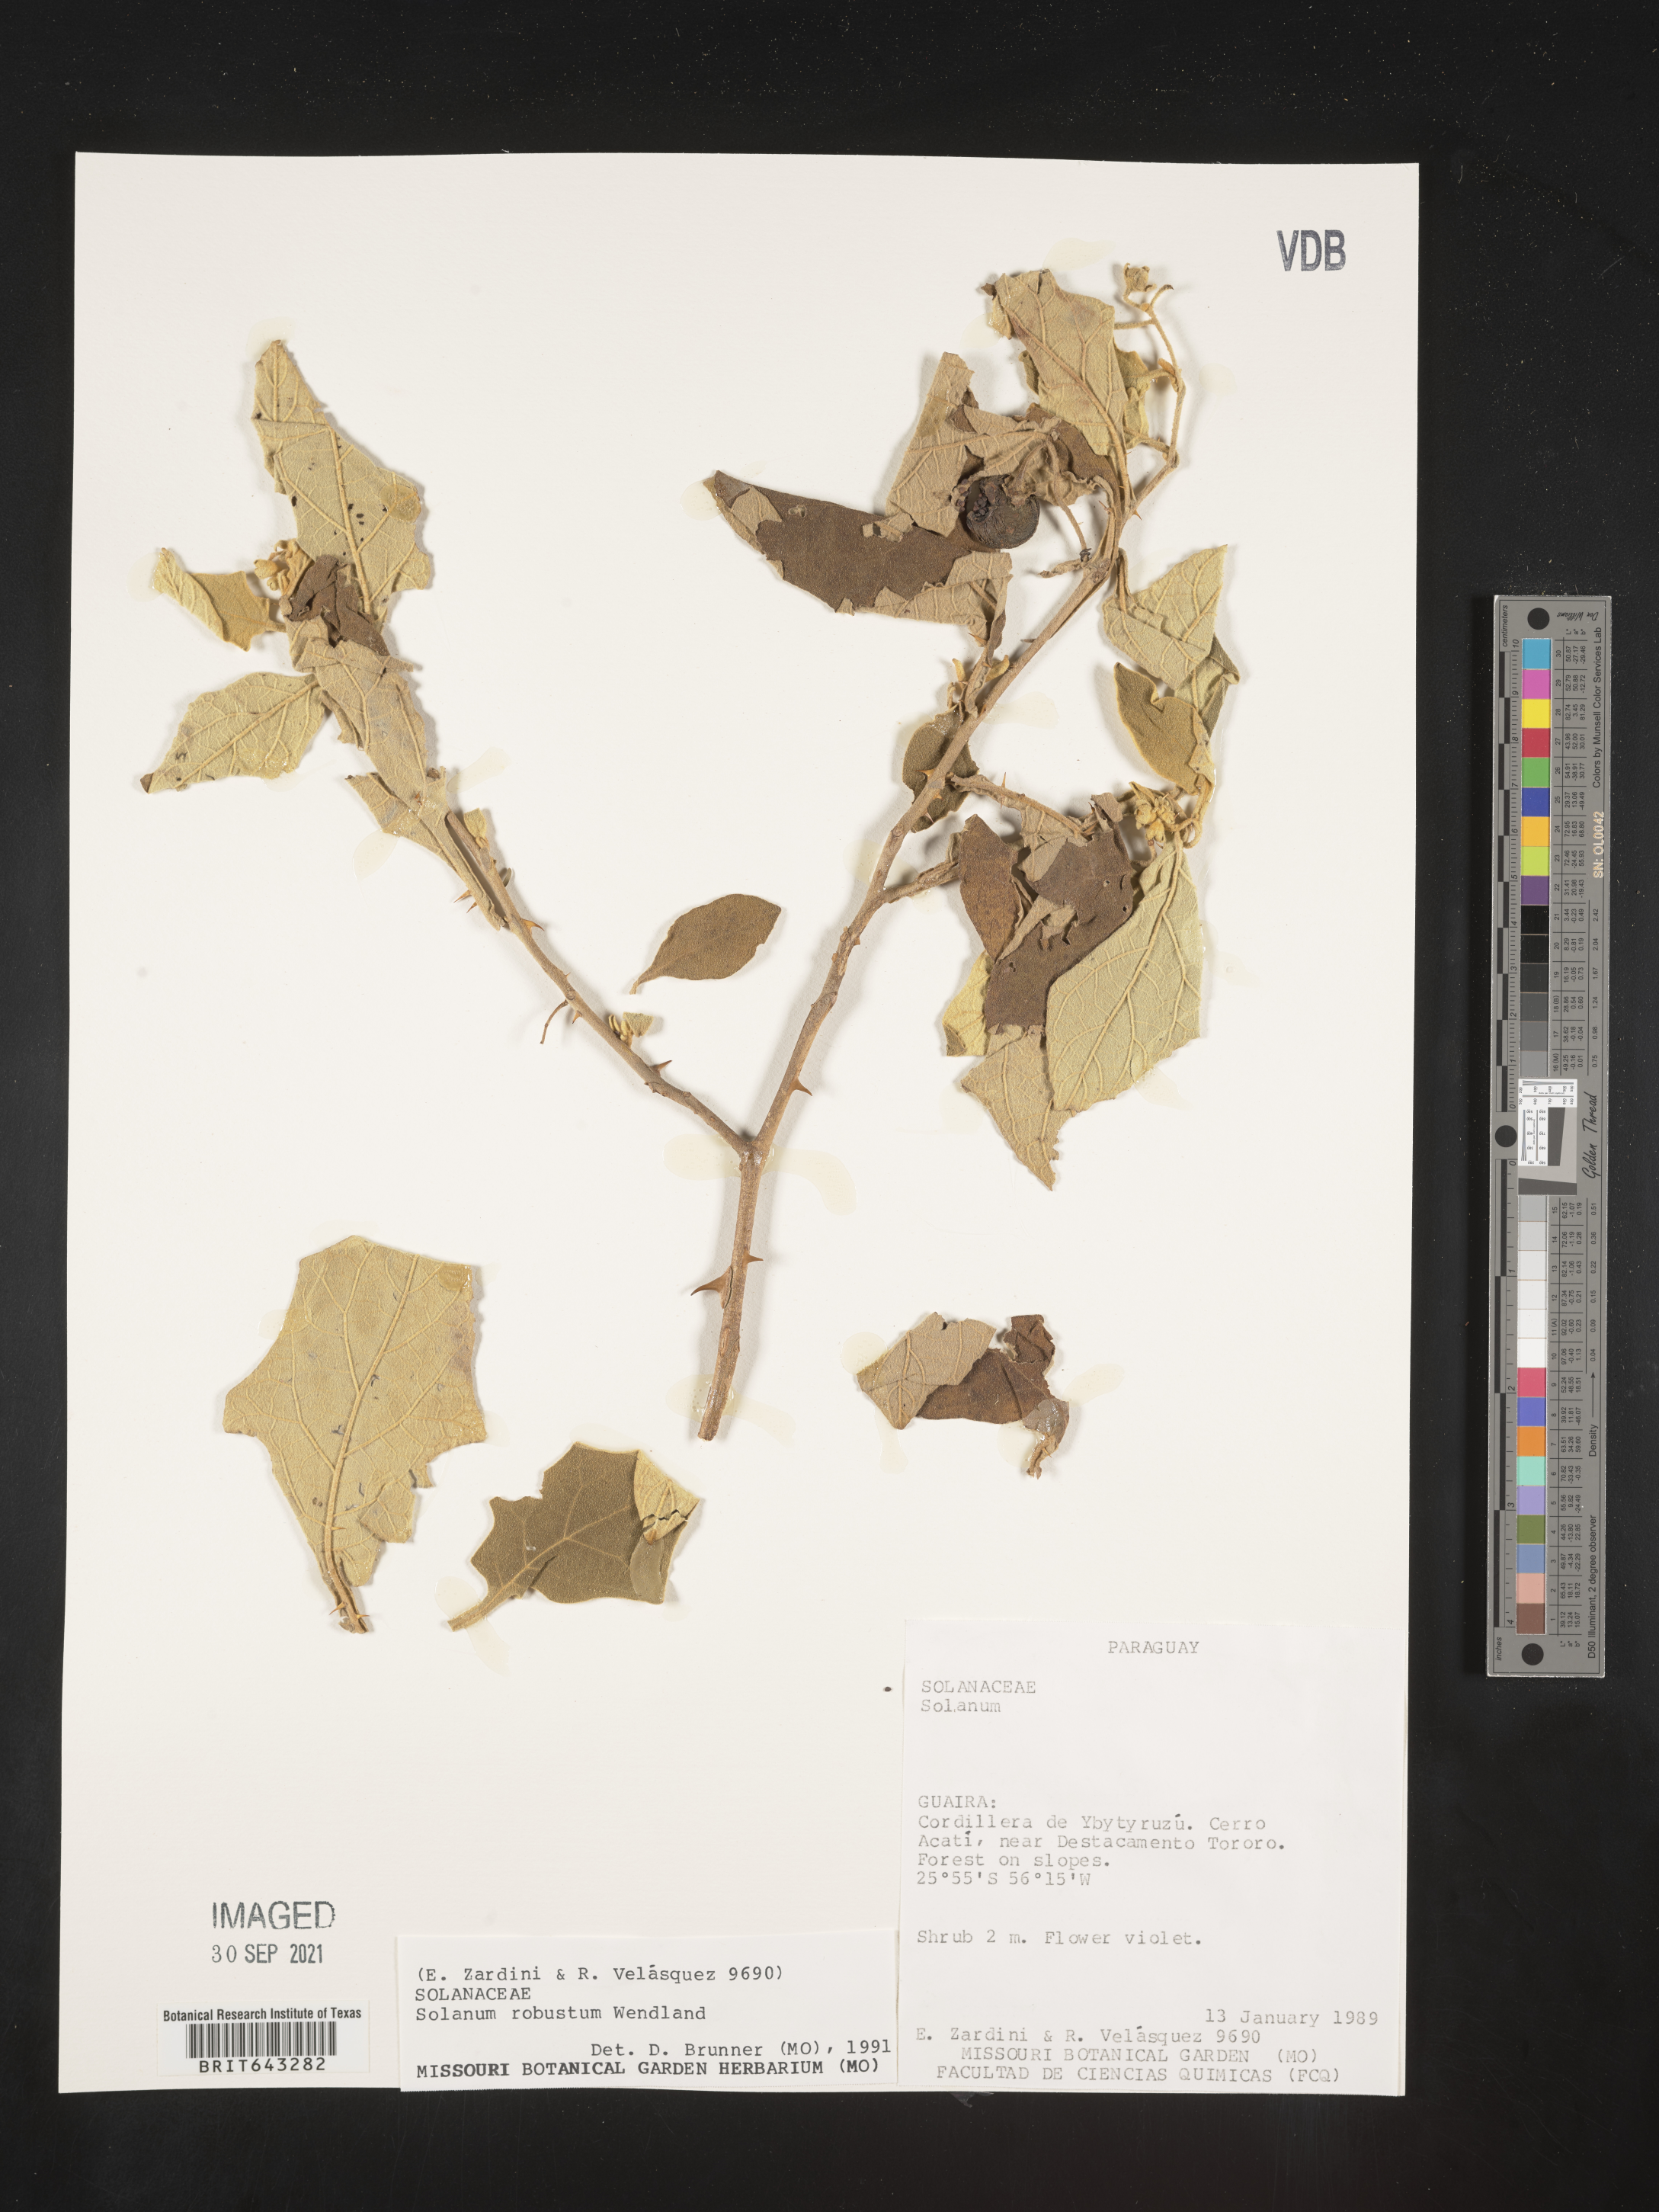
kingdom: Plantae
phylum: Tracheophyta
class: Magnoliopsida
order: Solanales
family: Solanaceae
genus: Solanum
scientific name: Solanum
